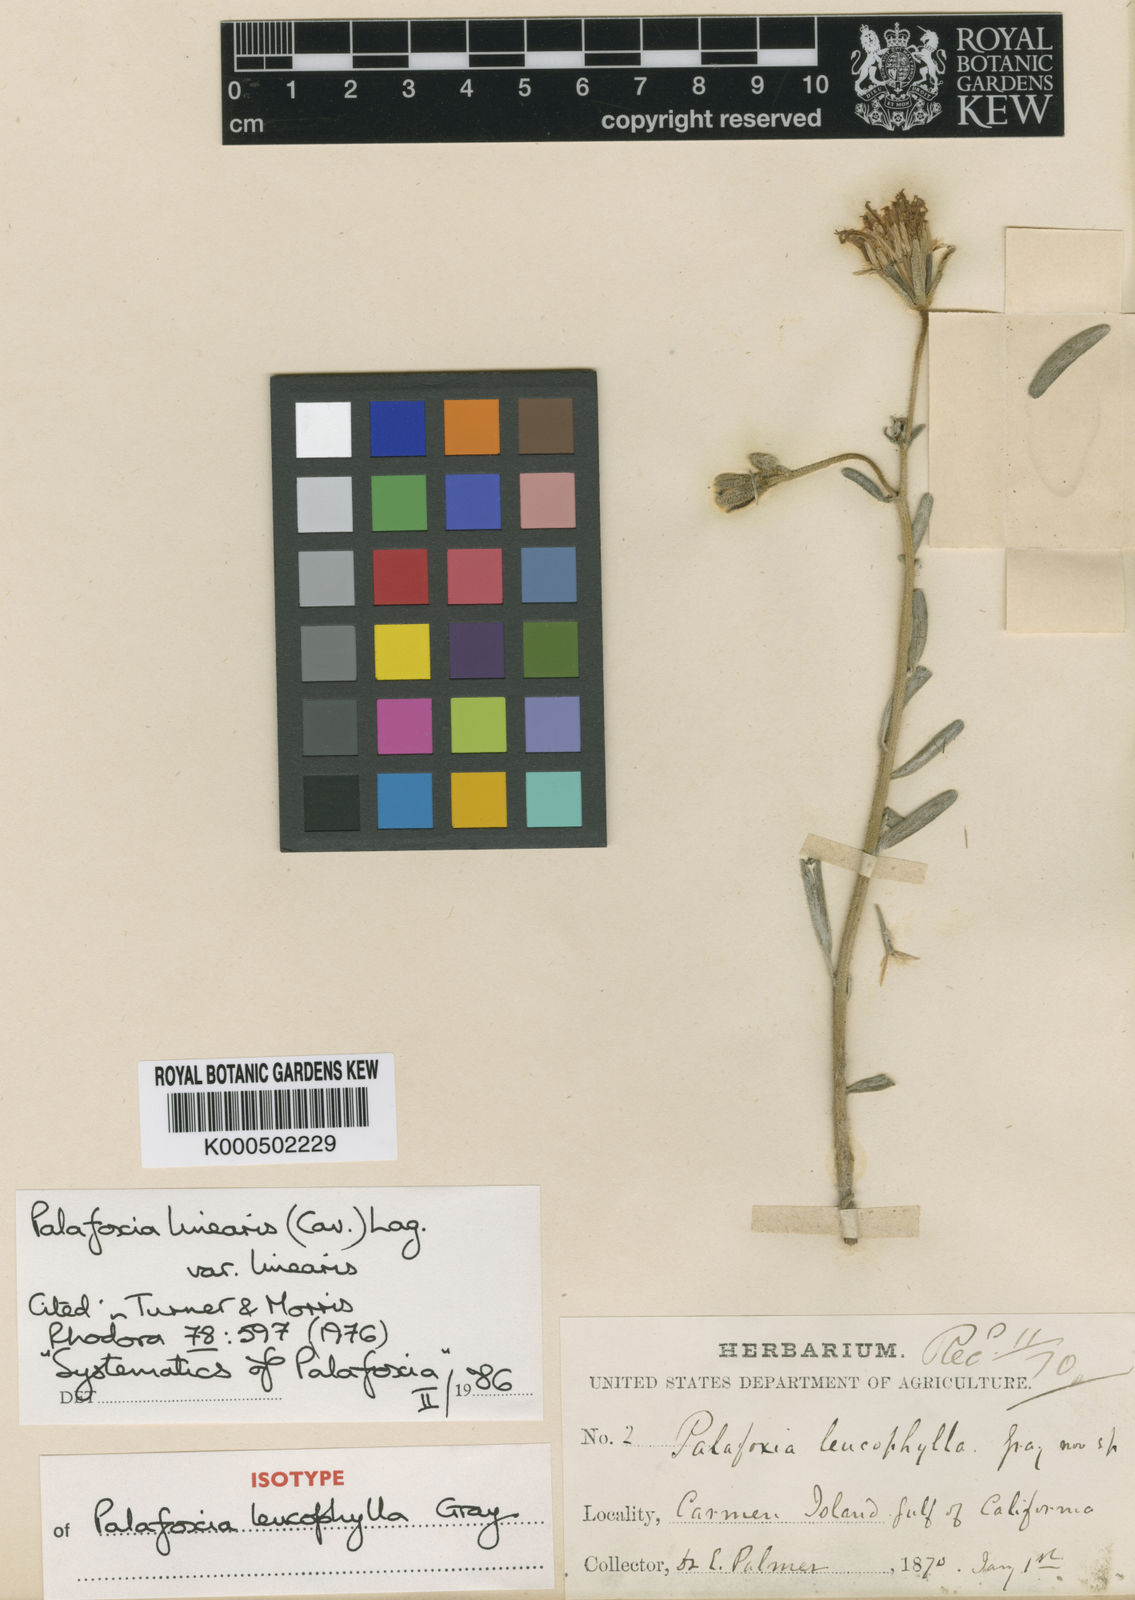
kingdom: Plantae
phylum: Tracheophyta
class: Magnoliopsida
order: Asterales
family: Asteraceae
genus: Palafoxia
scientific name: Palafoxia linearis
